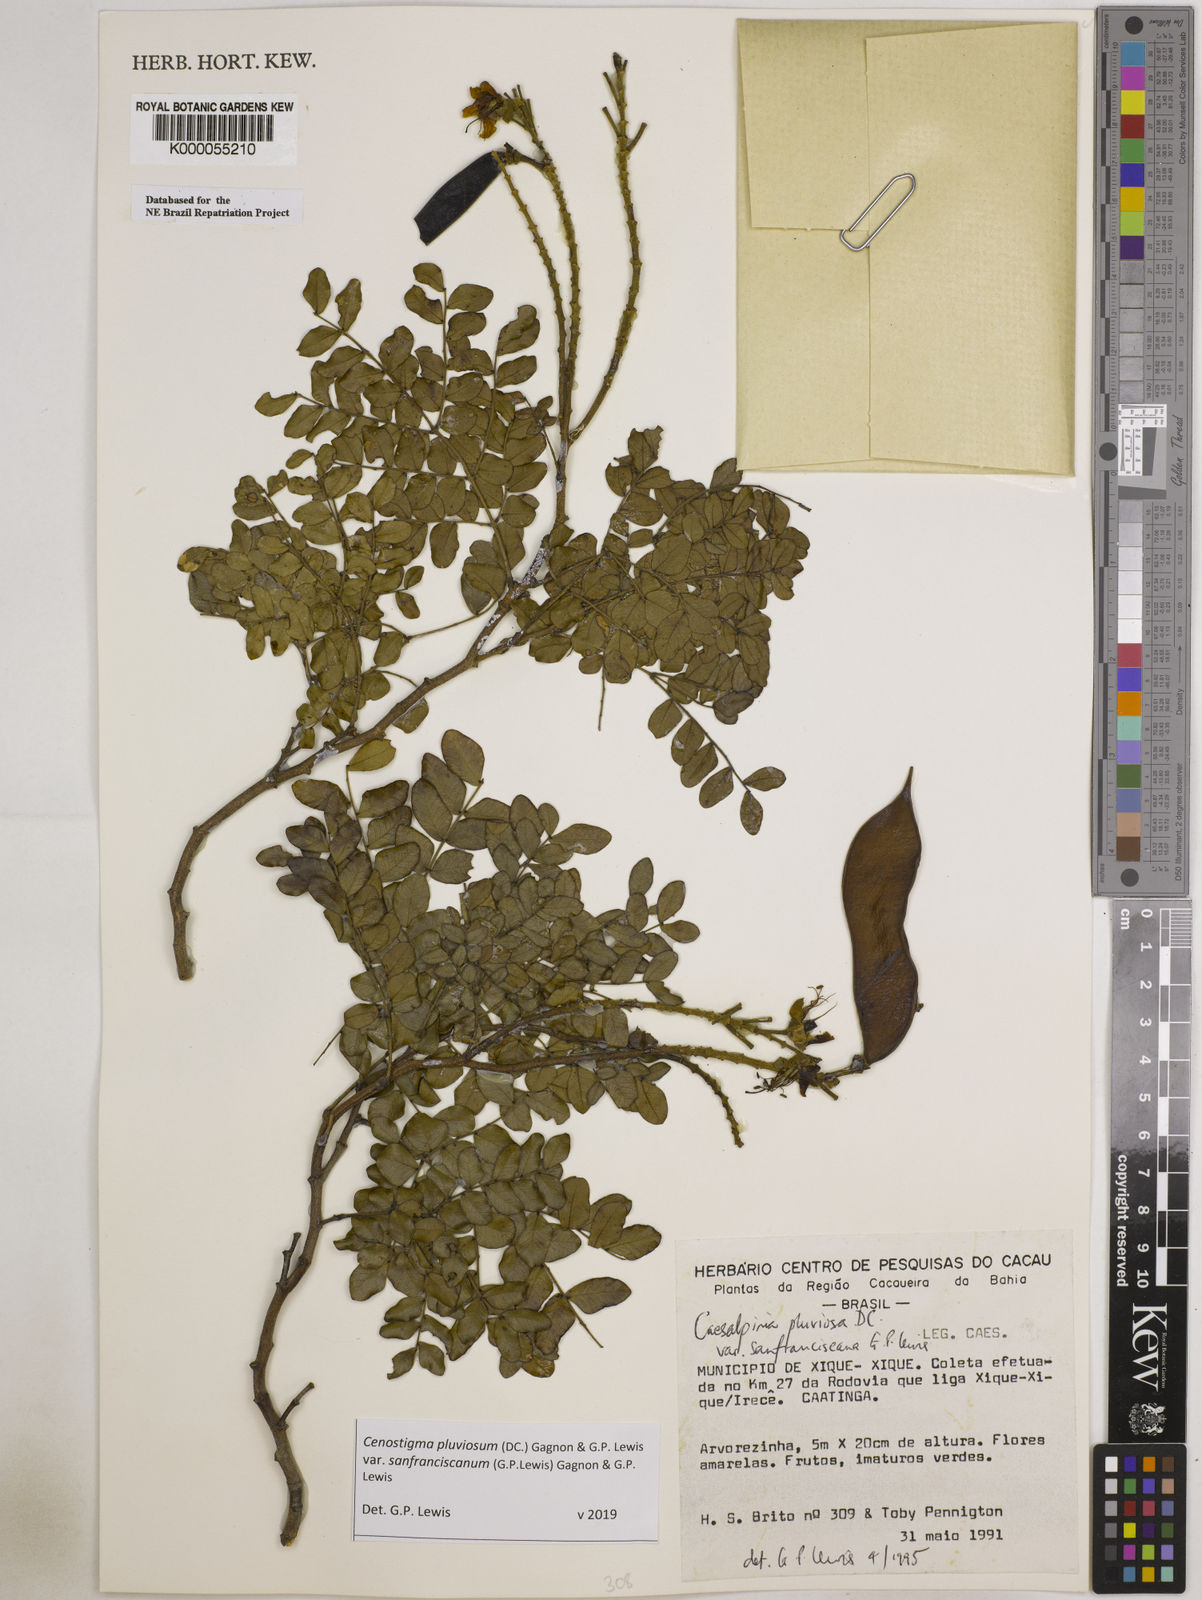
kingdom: Plantae
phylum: Tracheophyta
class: Magnoliopsida
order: Fabales
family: Fabaceae
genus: Cenostigma
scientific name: Cenostigma pluviosum
